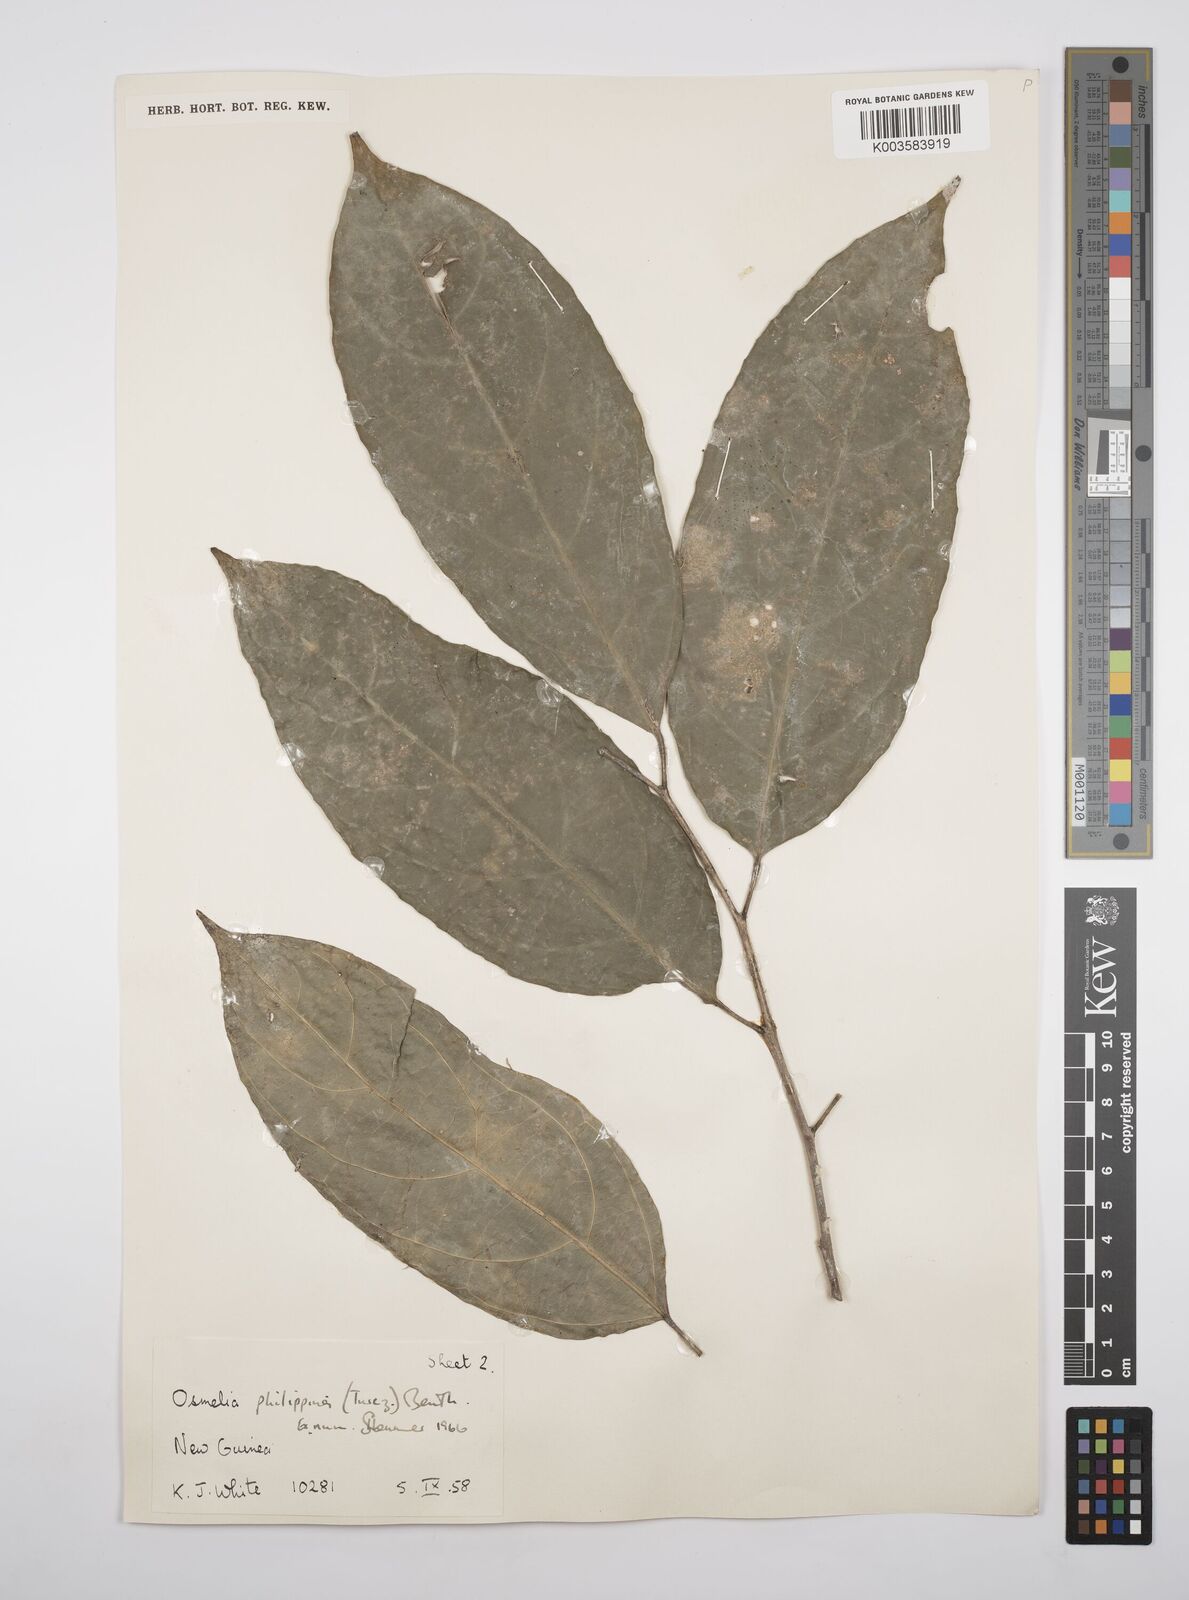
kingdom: Plantae
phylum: Tracheophyta
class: Magnoliopsida
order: Malpighiales
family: Salicaceae
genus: Osmelia
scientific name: Osmelia philippina
